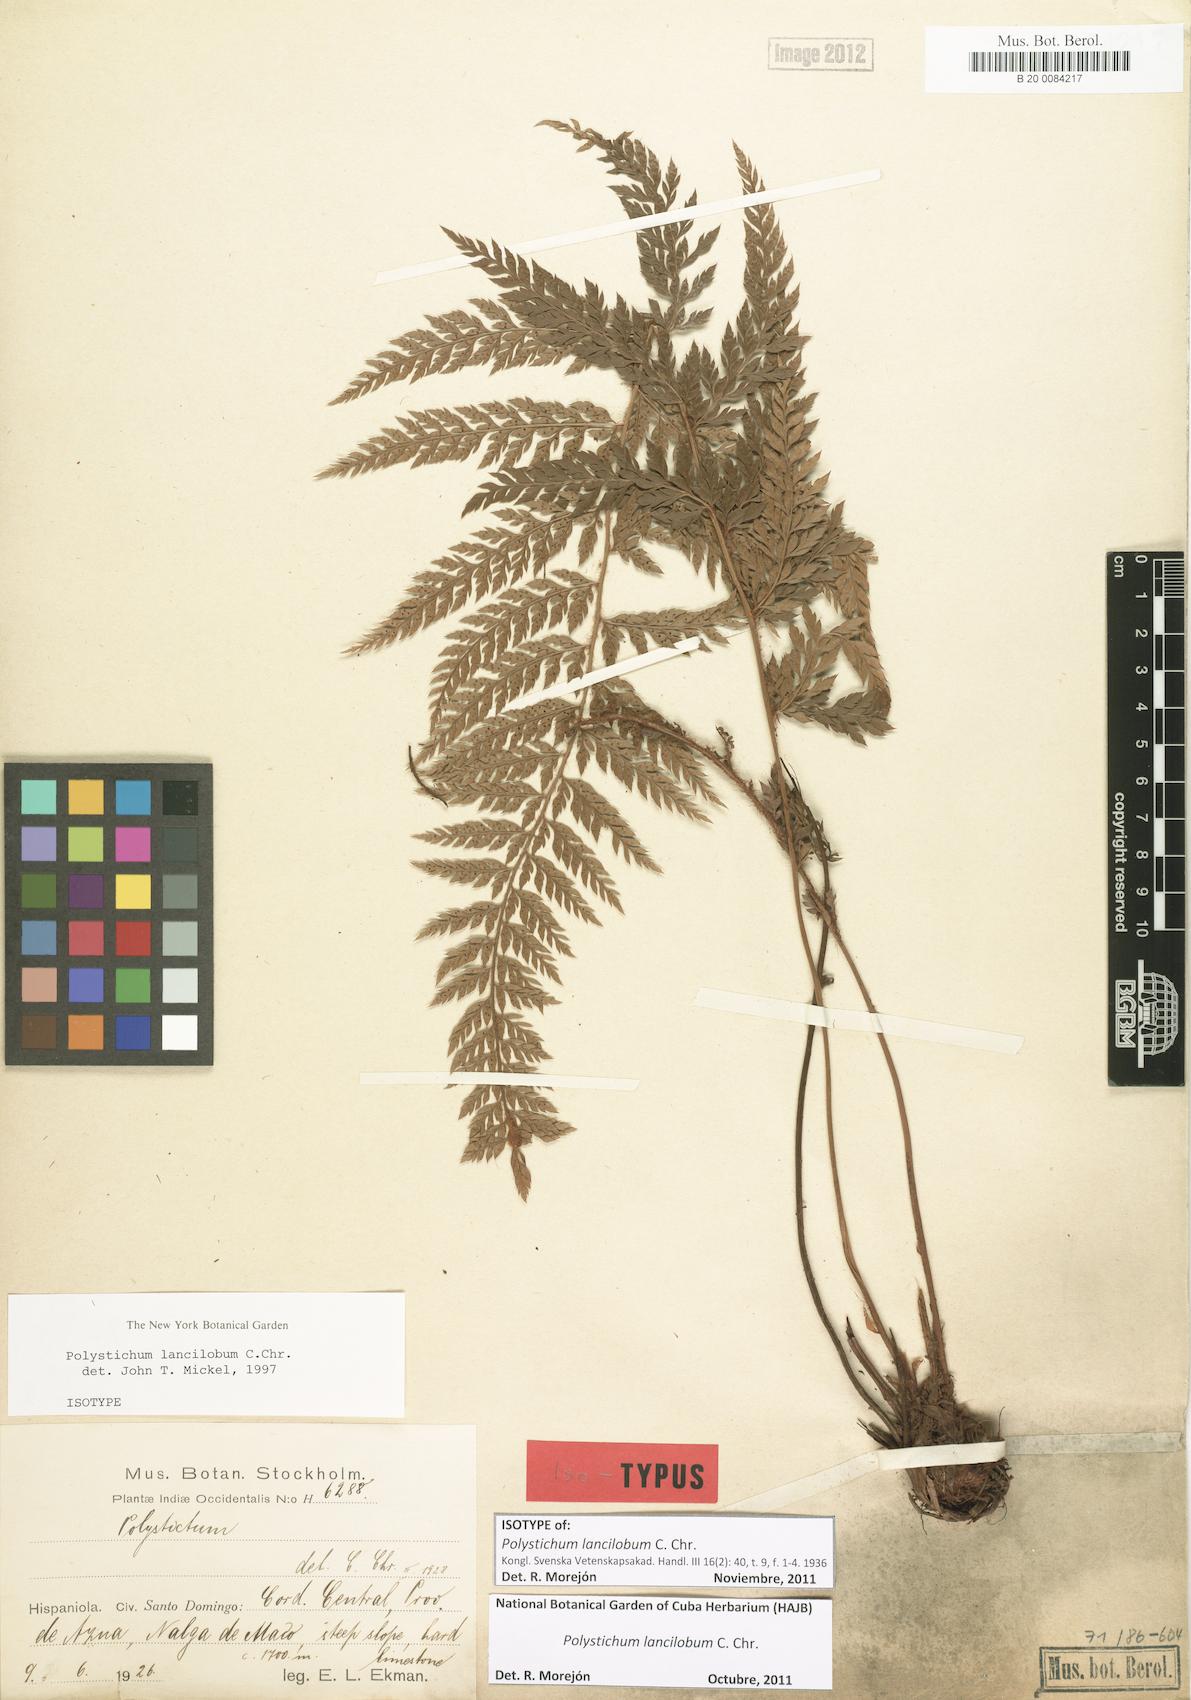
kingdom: Plantae
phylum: Tracheophyta
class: Polypodiopsida
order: Polypodiales
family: Dryopteridaceae
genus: Polystichum
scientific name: Polystichum lancilobum
